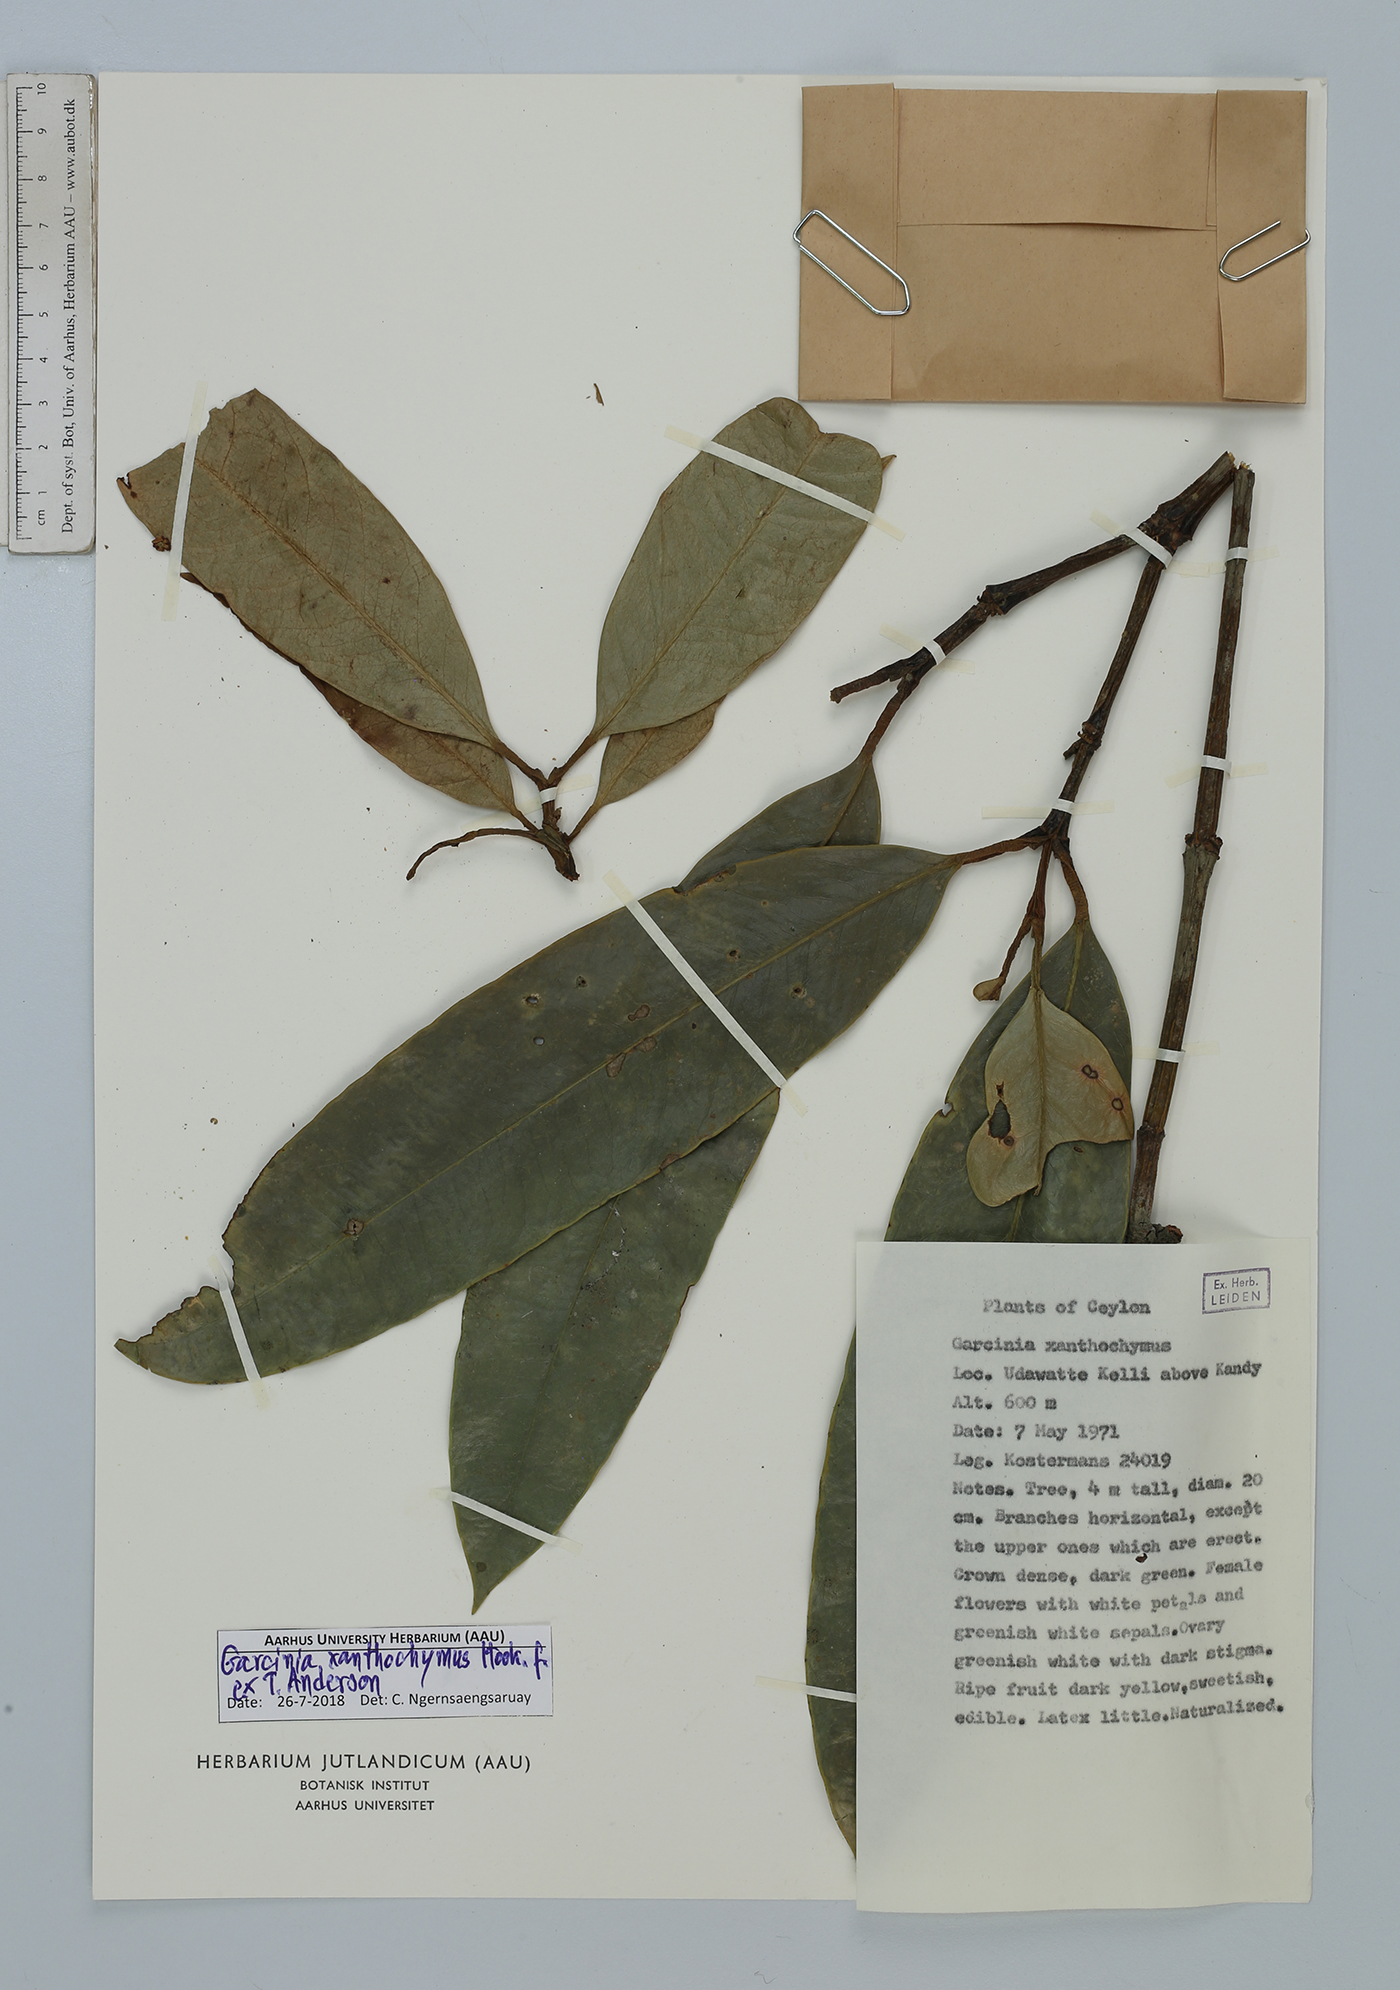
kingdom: Plantae
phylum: Tracheophyta
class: Magnoliopsida
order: Malpighiales
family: Clusiaceae
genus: Garcinia
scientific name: Garcinia xanthochymus
